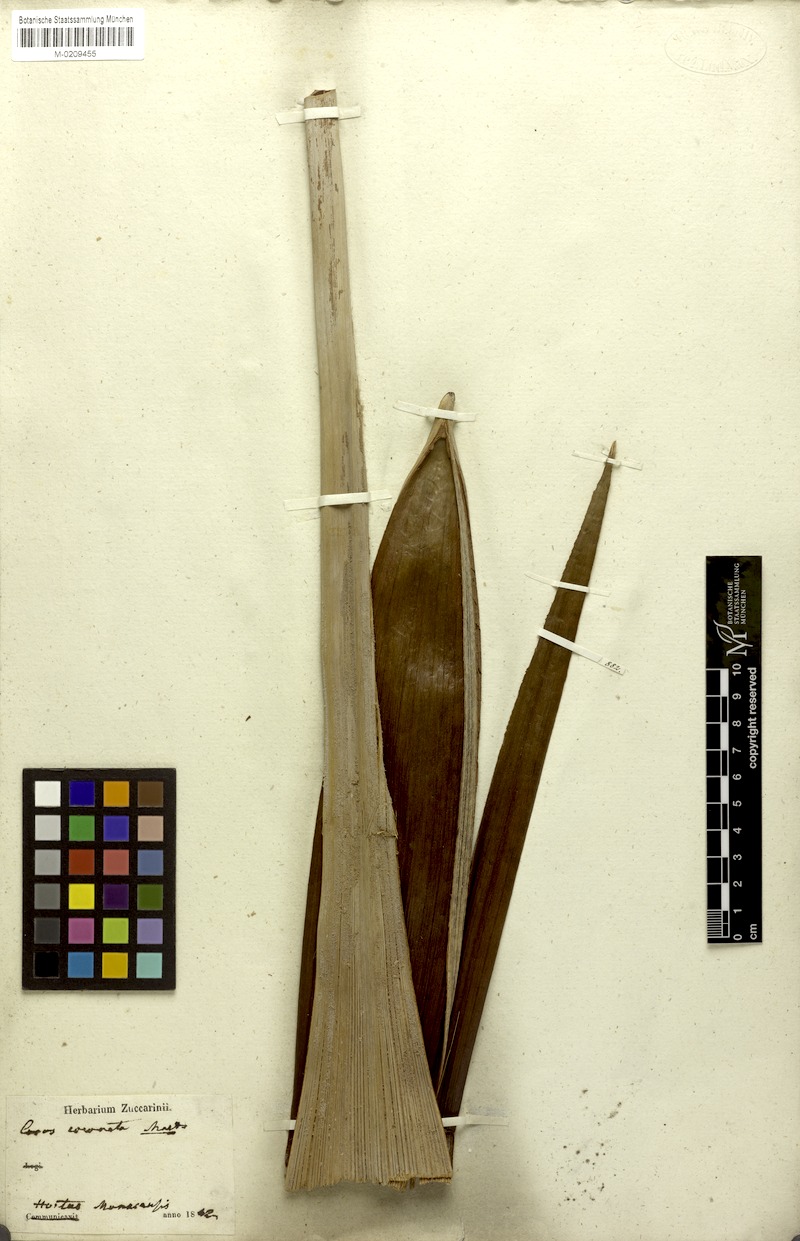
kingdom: Plantae
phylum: Tracheophyta
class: Liliopsida
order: Arecales
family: Arecaceae
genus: Syagrus
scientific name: Syagrus oleracea
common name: Catole palm
